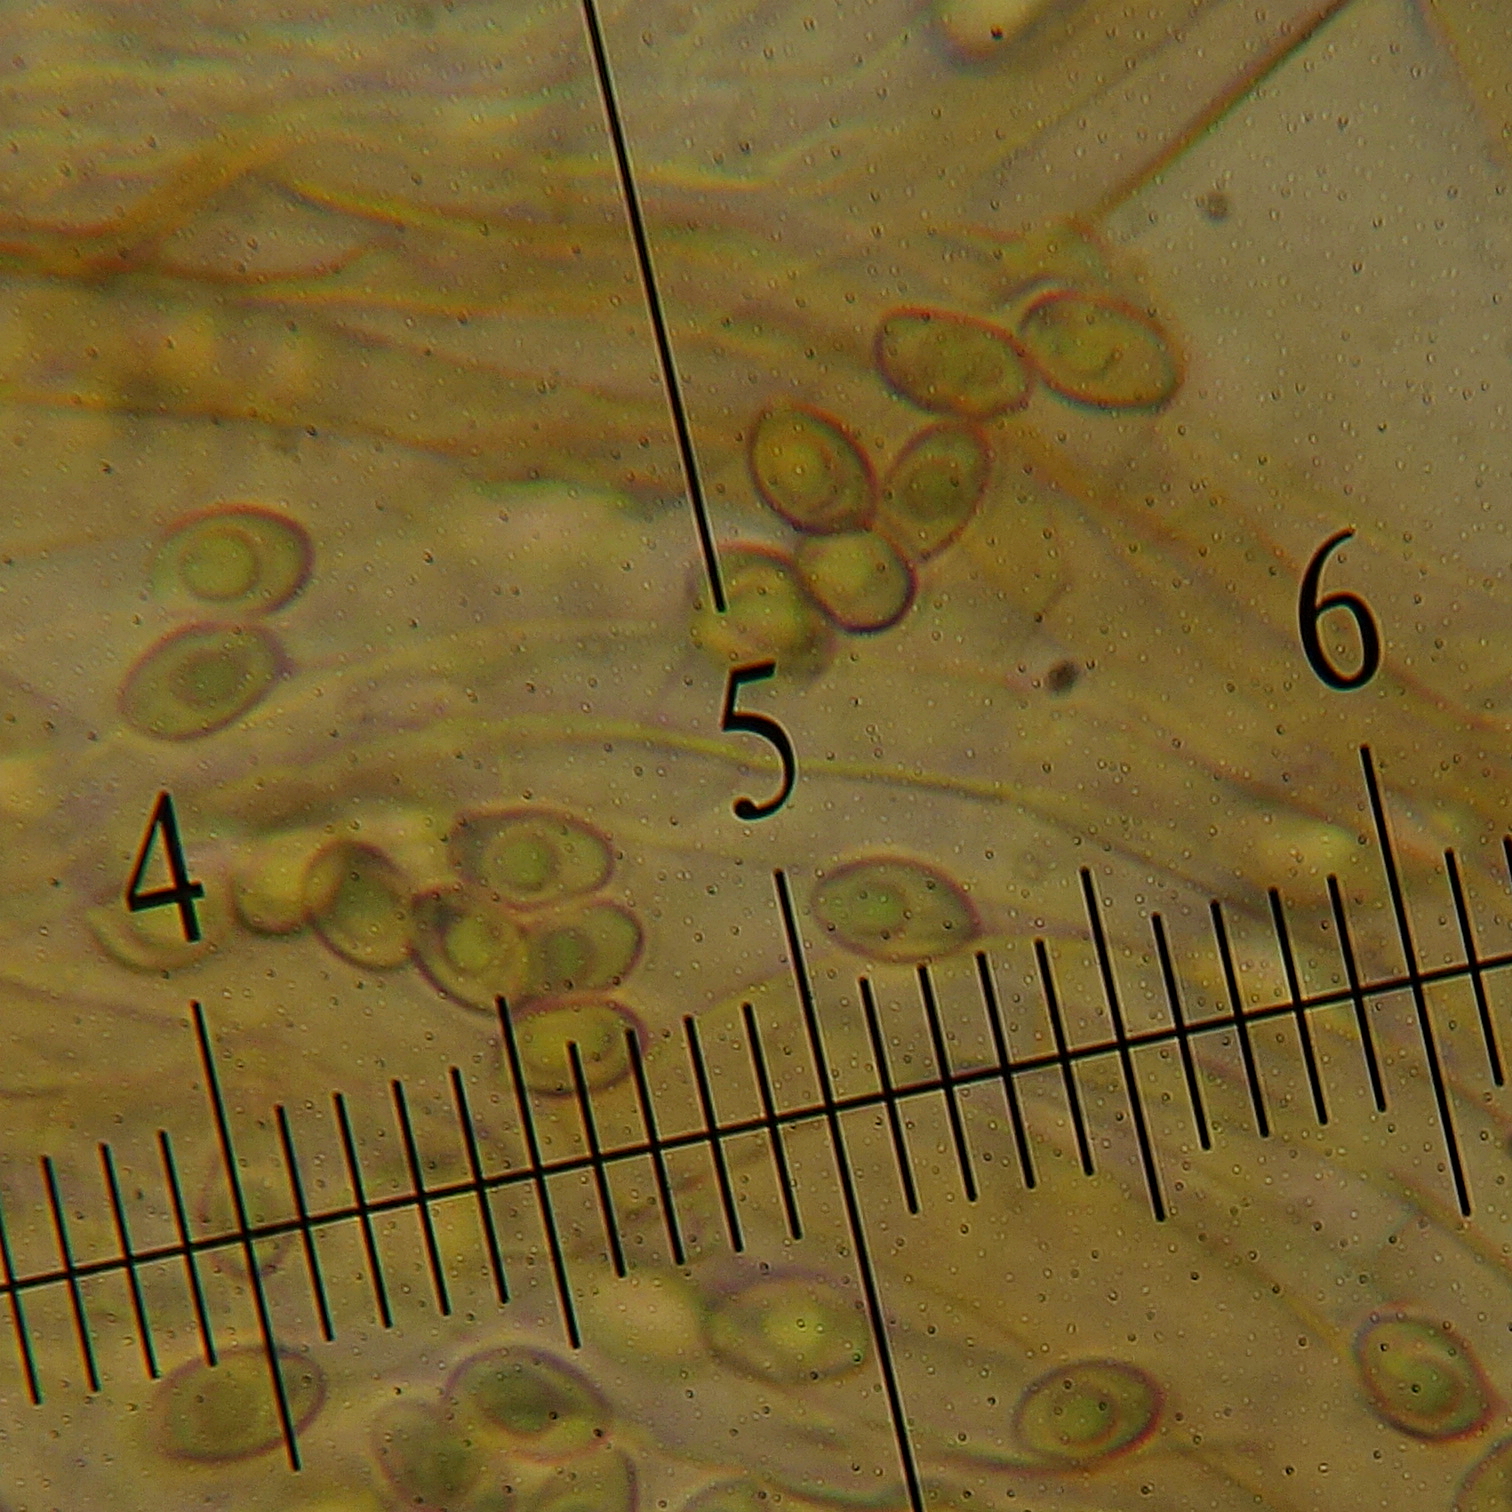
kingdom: Fungi
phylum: Basidiomycota
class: Agaricomycetes
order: Agaricales
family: Agaricaceae
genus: Lepiota
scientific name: Lepiota
